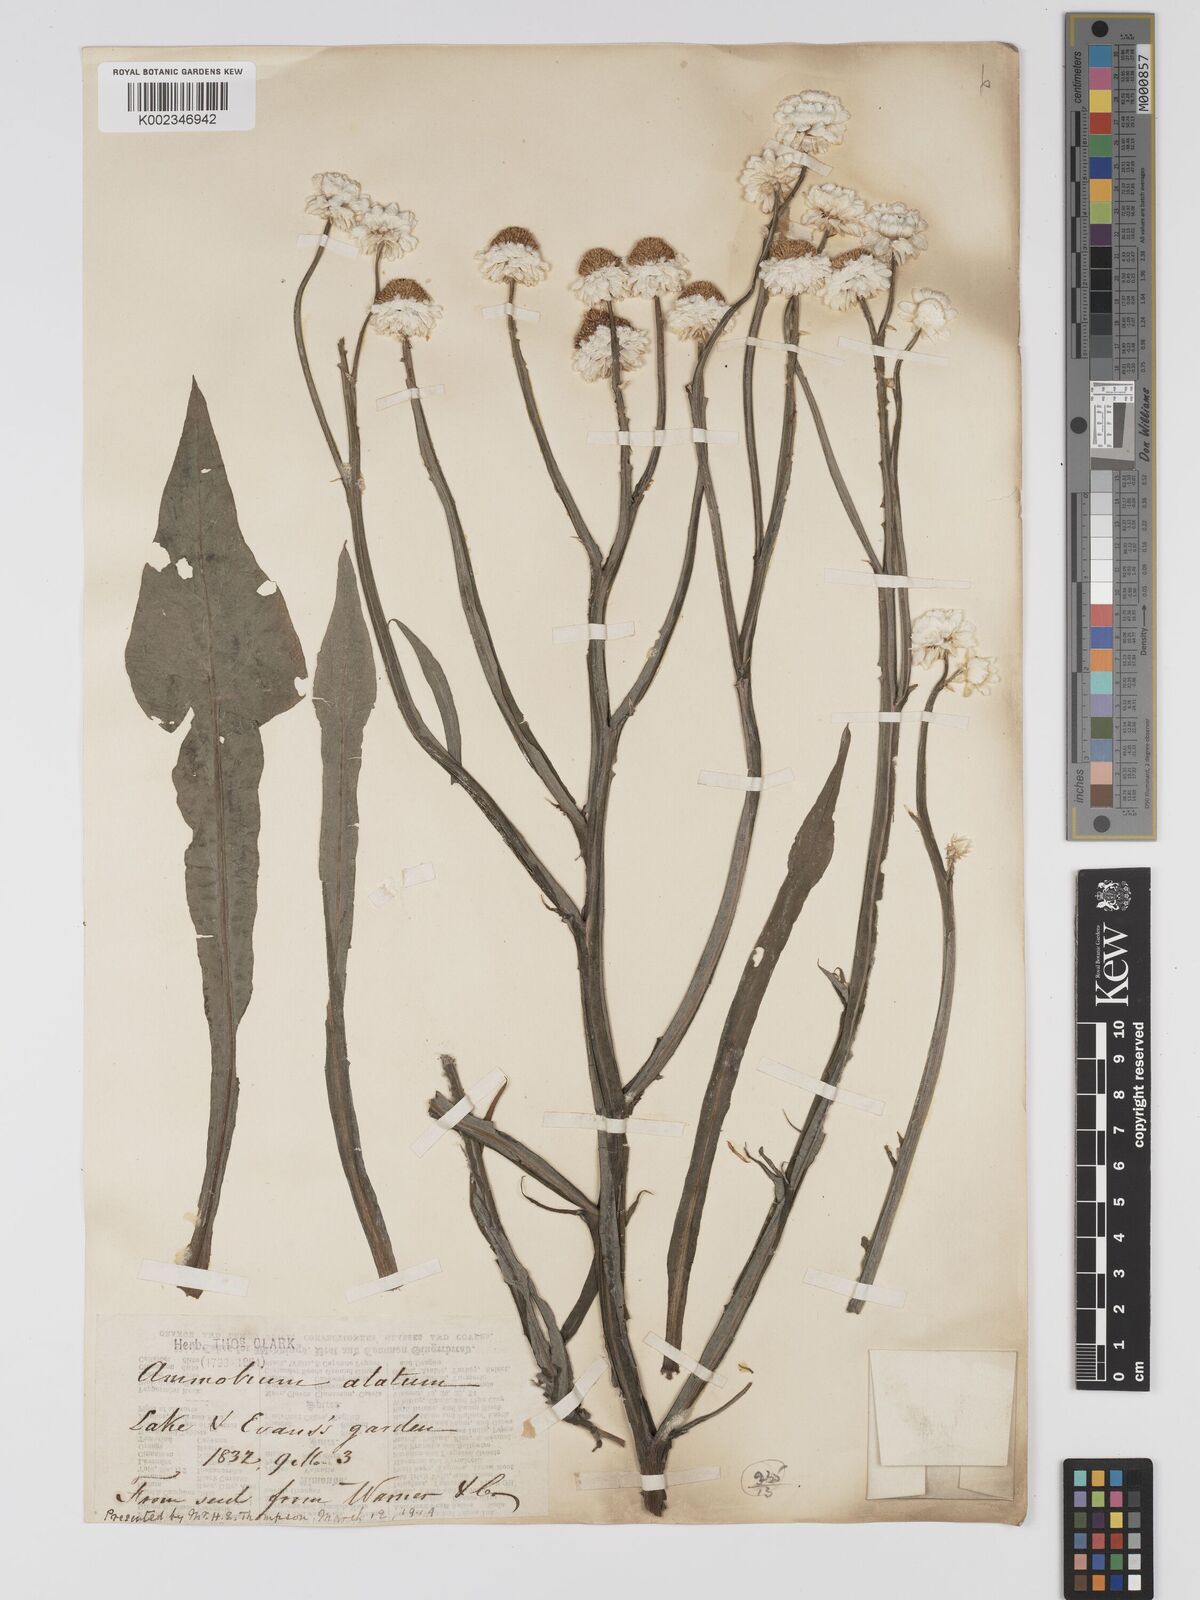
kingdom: Plantae
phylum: Tracheophyta
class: Magnoliopsida
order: Asterales
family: Asteraceae
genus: Ammobium
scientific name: Ammobium alatum
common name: Winged everlasting
